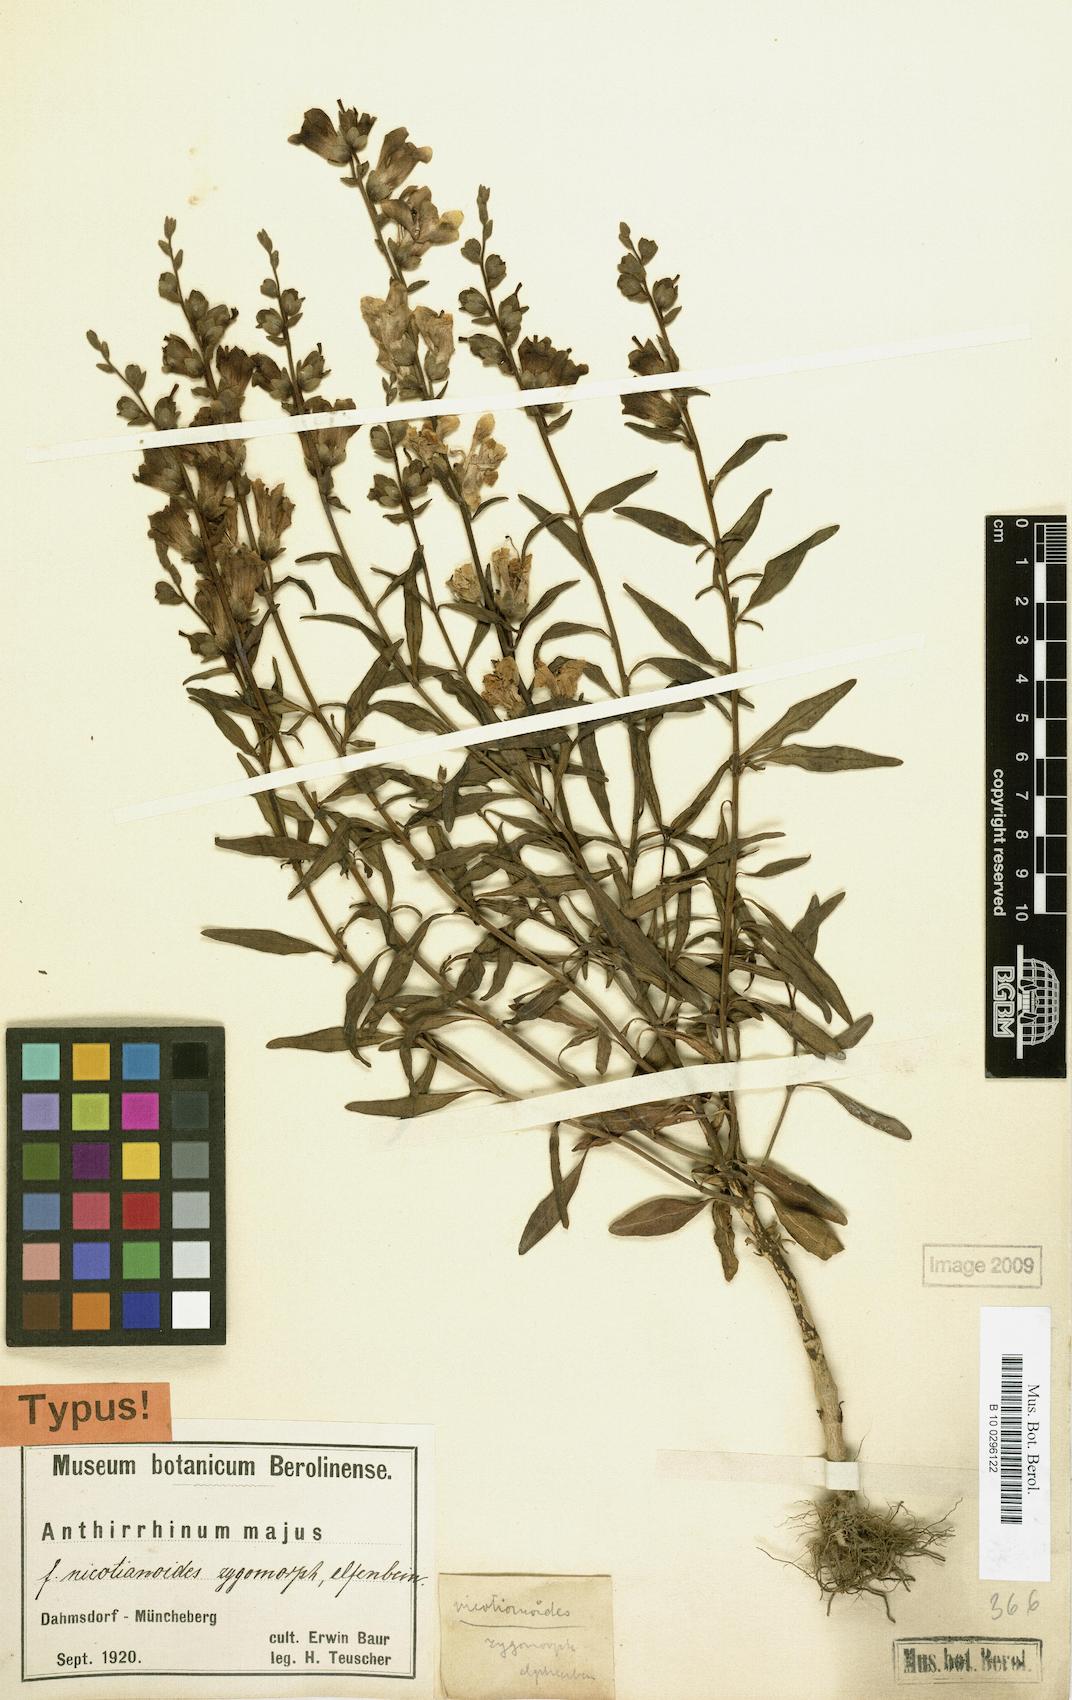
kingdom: Plantae
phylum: Tracheophyta
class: Magnoliopsida
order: Lamiales
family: Plantaginaceae
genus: Antirrhinum
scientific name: Antirrhinum majus
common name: Snapdragon
